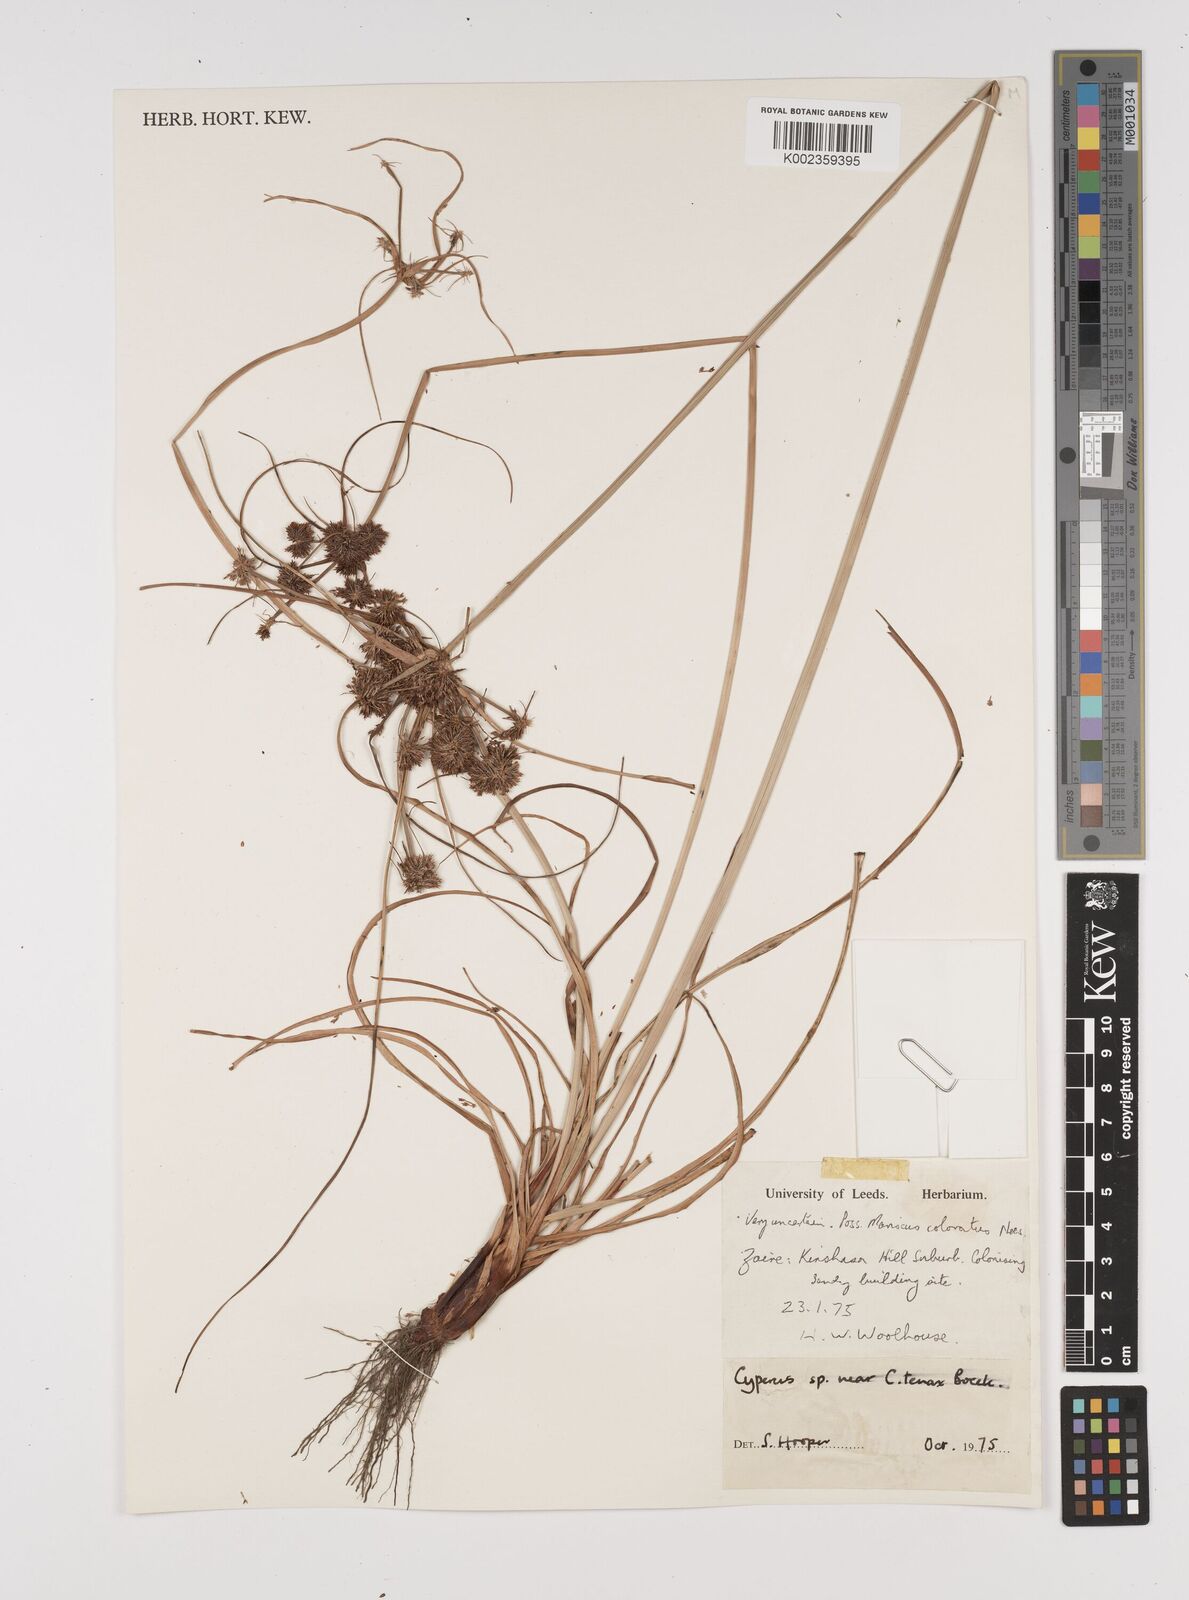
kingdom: Plantae
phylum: Tracheophyta
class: Liliopsida
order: Poales
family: Cyperaceae
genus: Cyperus
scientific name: Cyperus tenax
